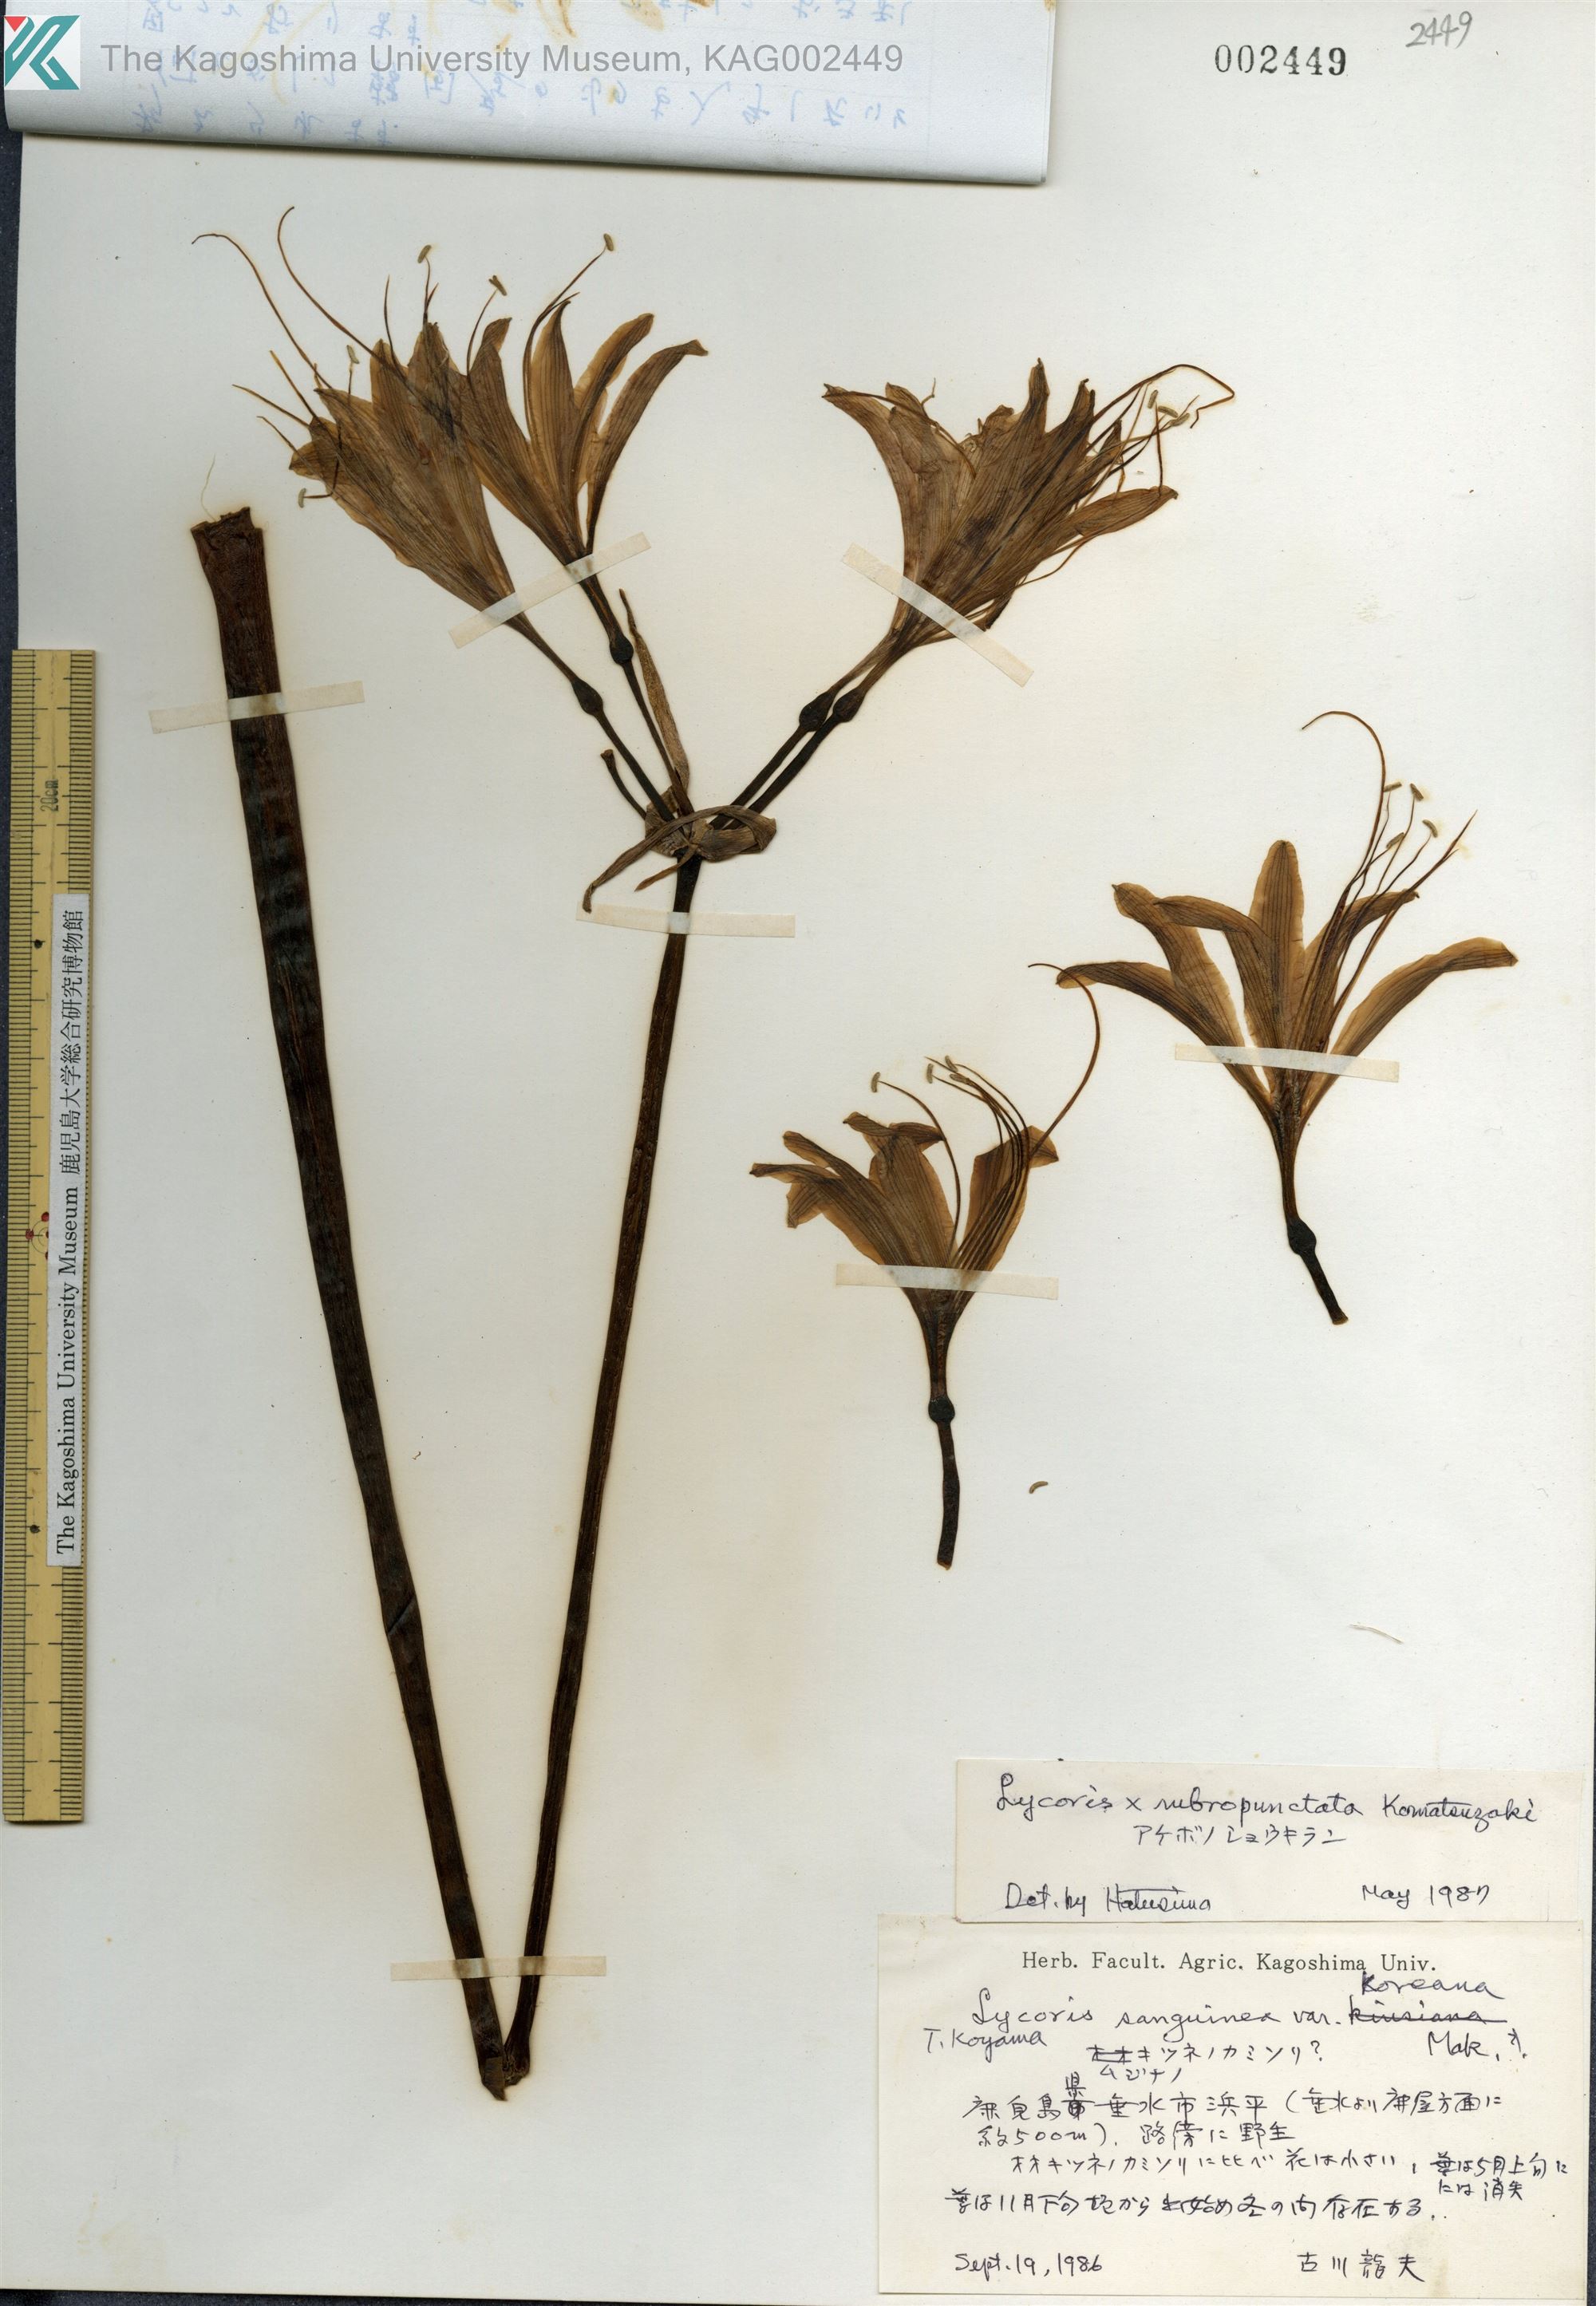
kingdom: Plantae
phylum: Tracheophyta
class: Liliopsida
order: Asparagales
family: Amaryllidaceae
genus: Lycoris
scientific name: Lycoris albiflora
